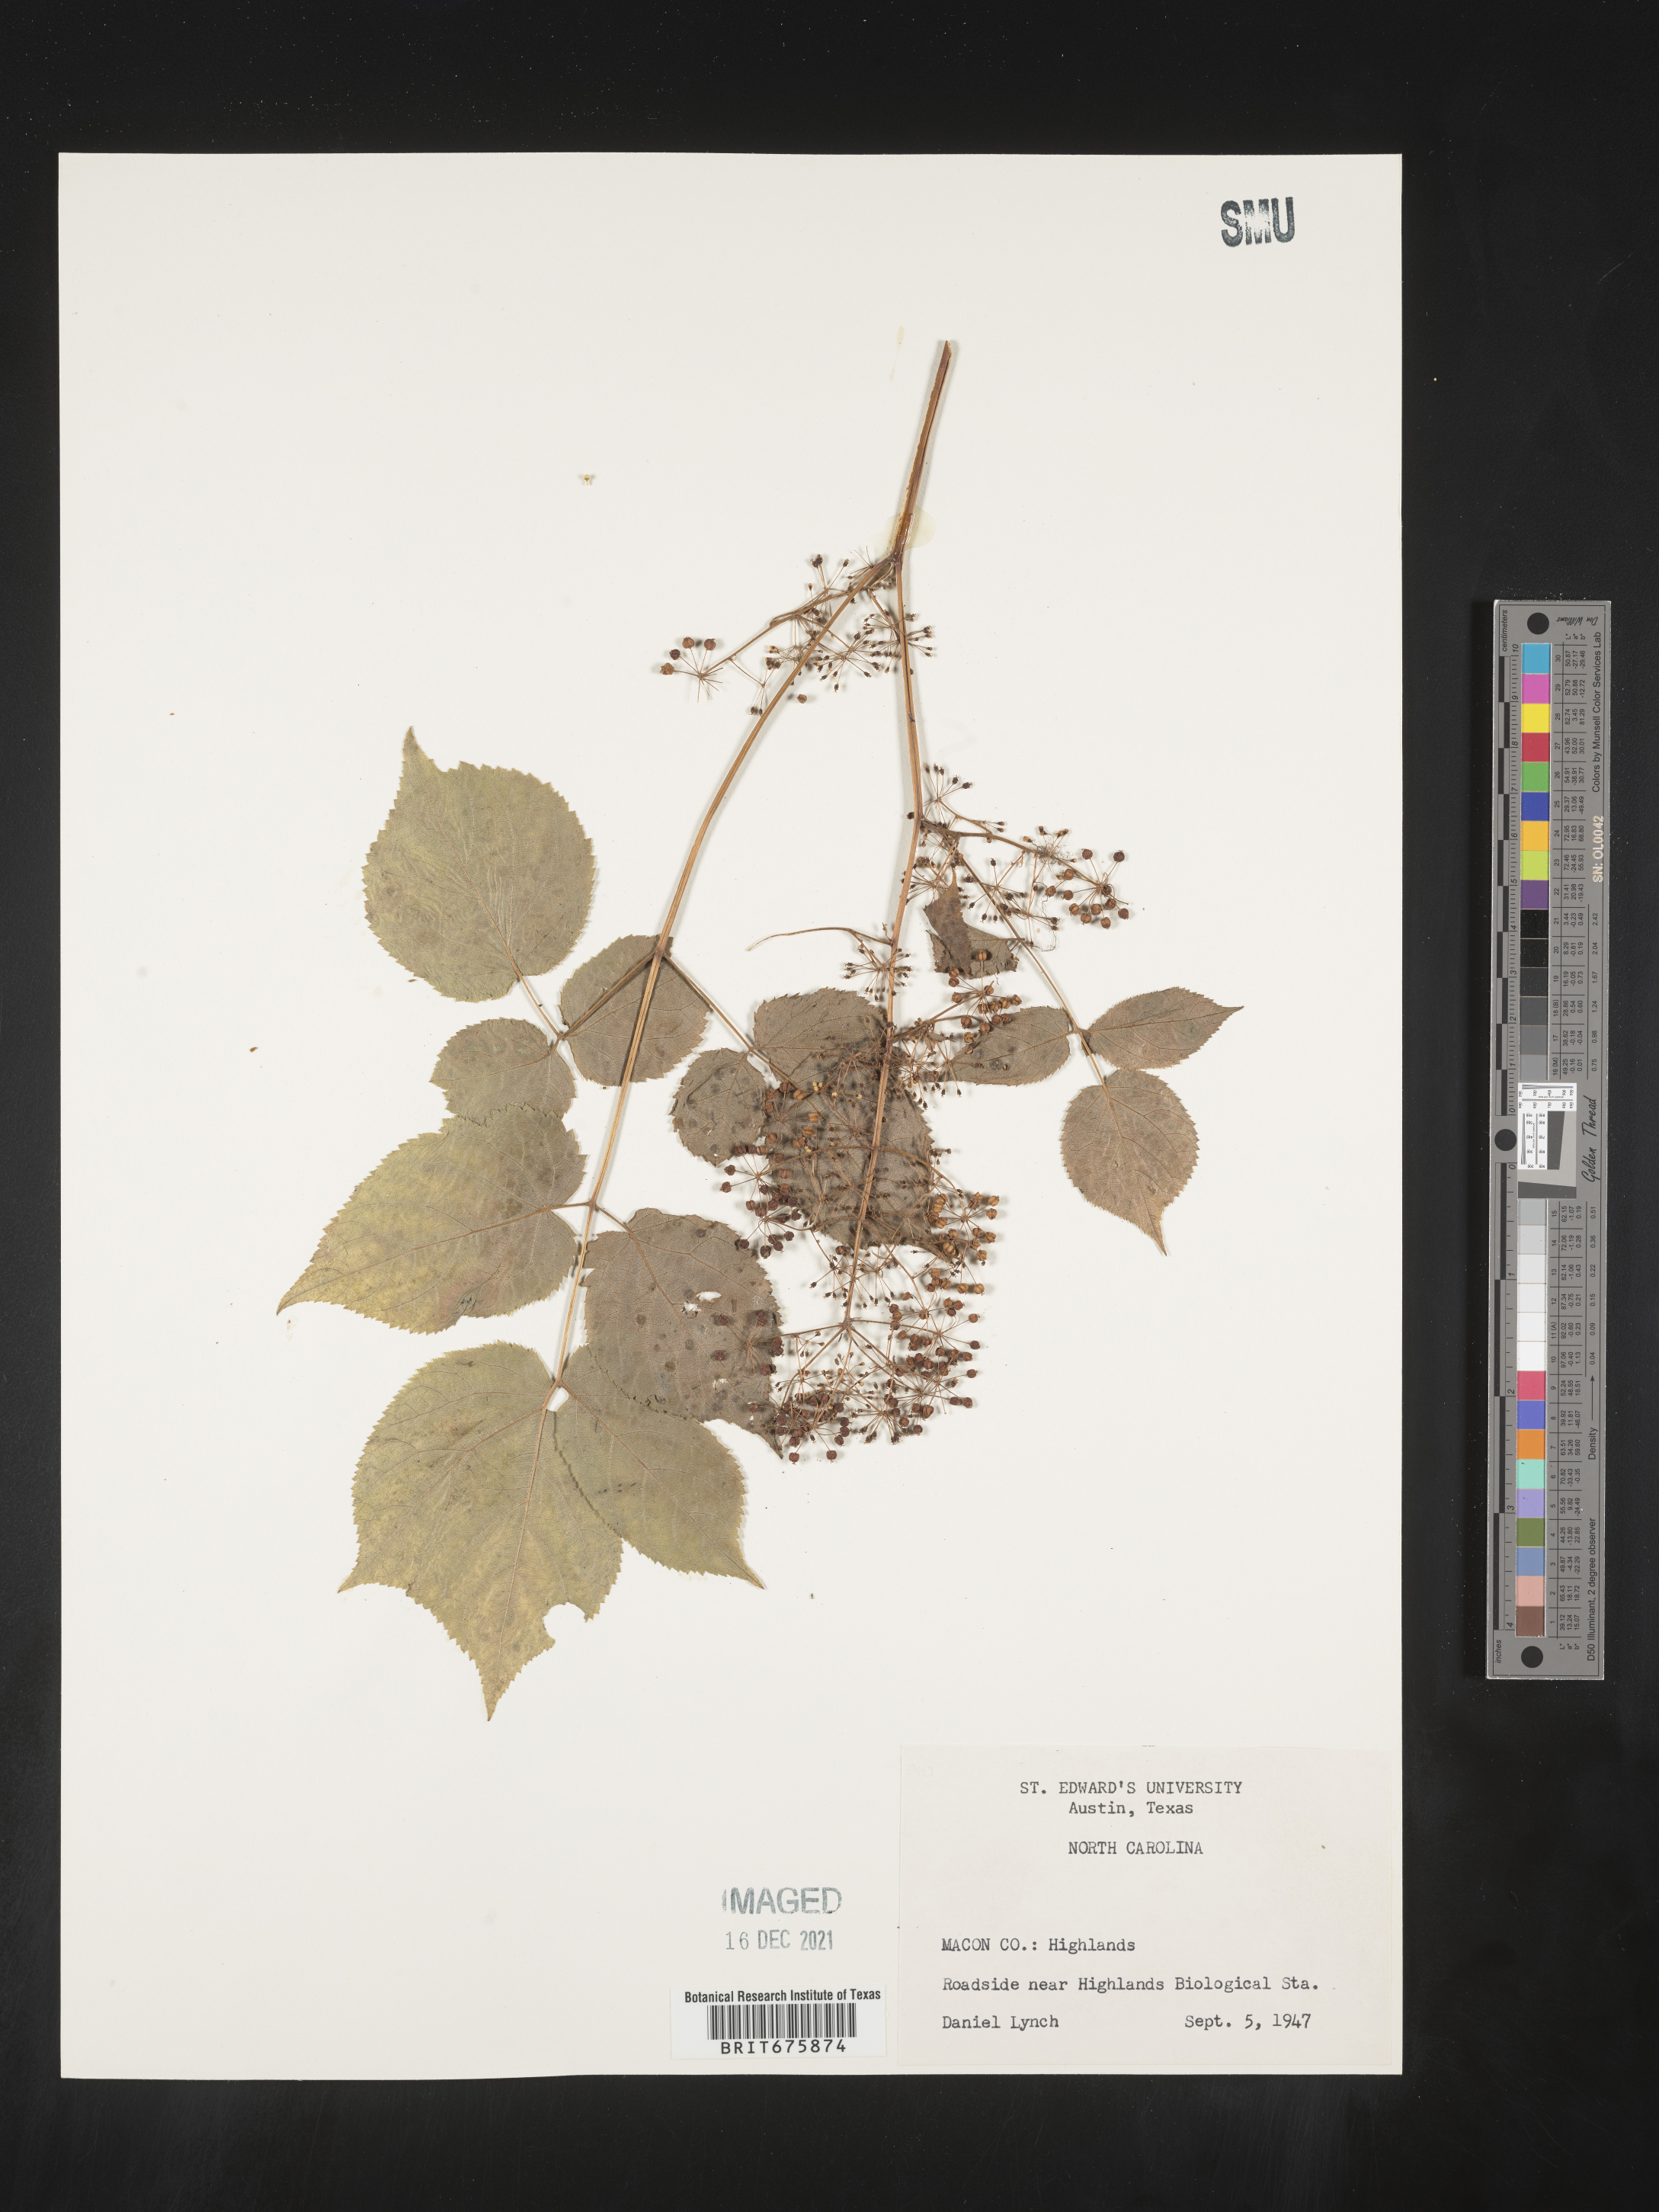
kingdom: Plantae
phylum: Tracheophyta
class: Magnoliopsida
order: Apiales
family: Araliaceae
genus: Aralia
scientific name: Aralia spinosa
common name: Hercules'-club
